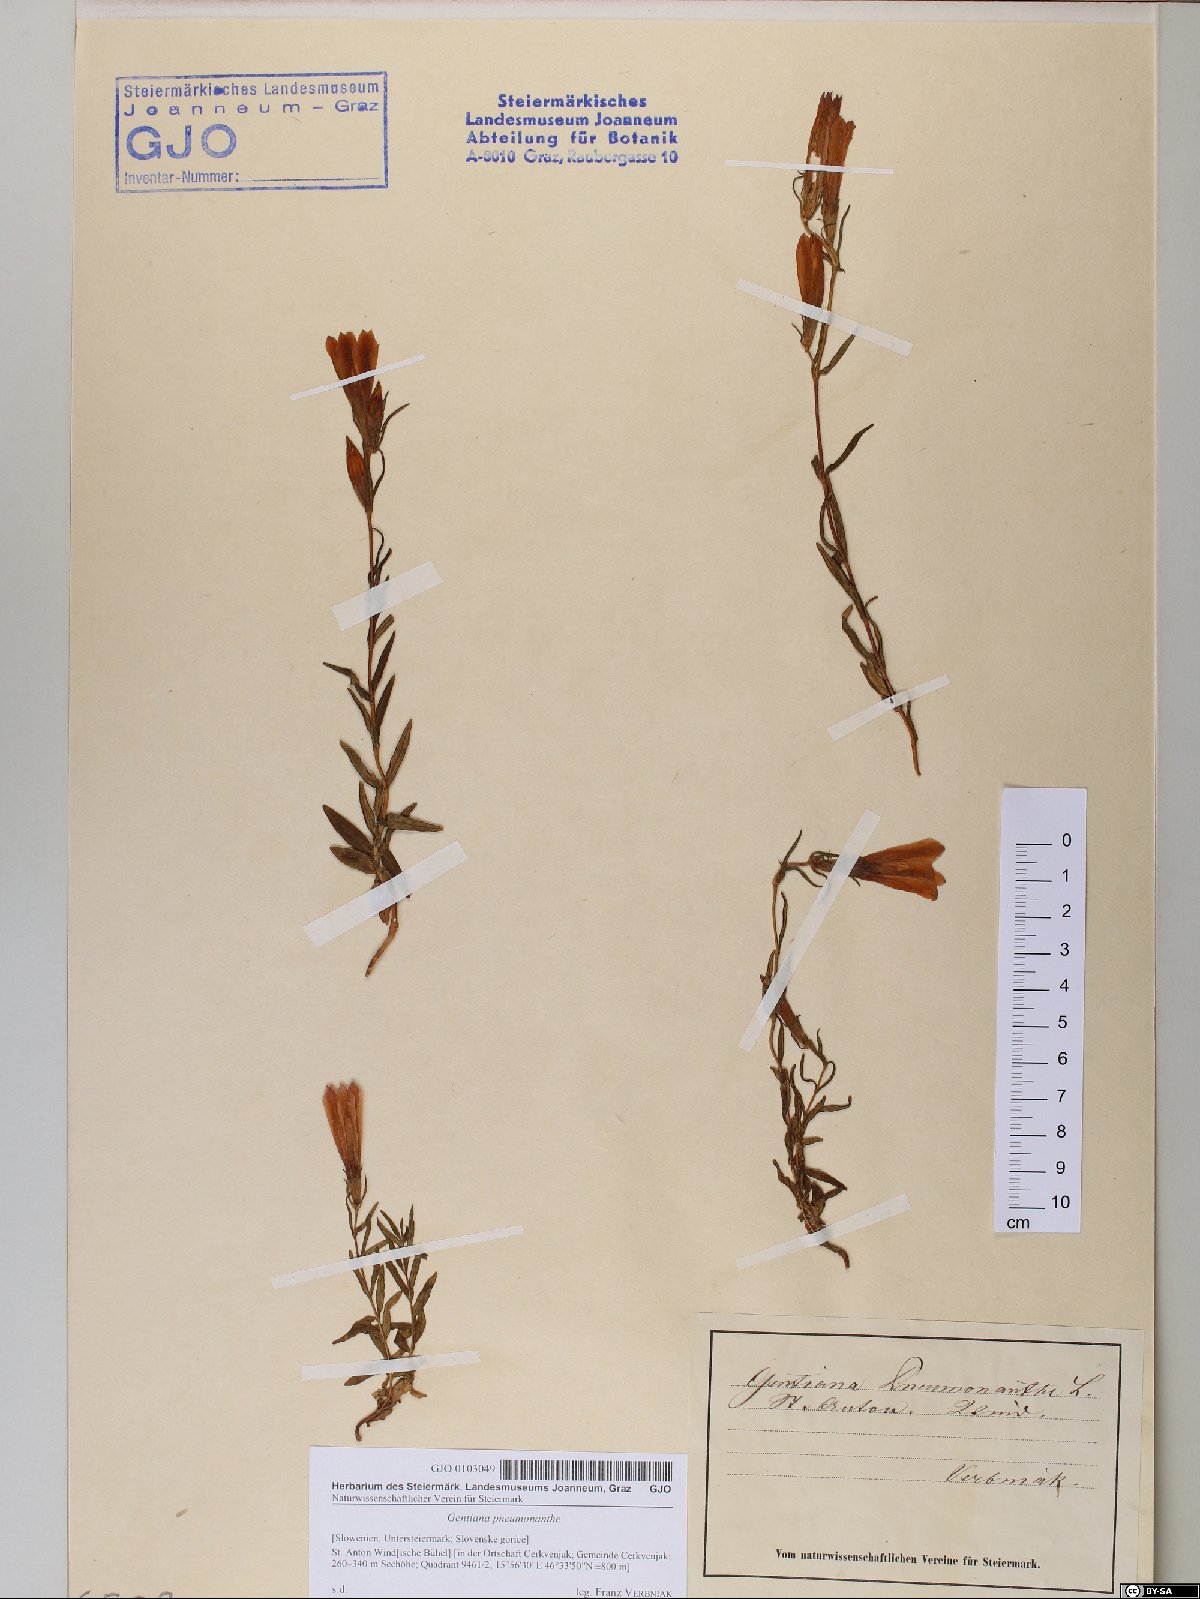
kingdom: Plantae
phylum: Tracheophyta
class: Magnoliopsida
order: Gentianales
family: Gentianaceae
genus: Gentiana
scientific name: Gentiana pneumonanthe
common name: Marsh gentian
